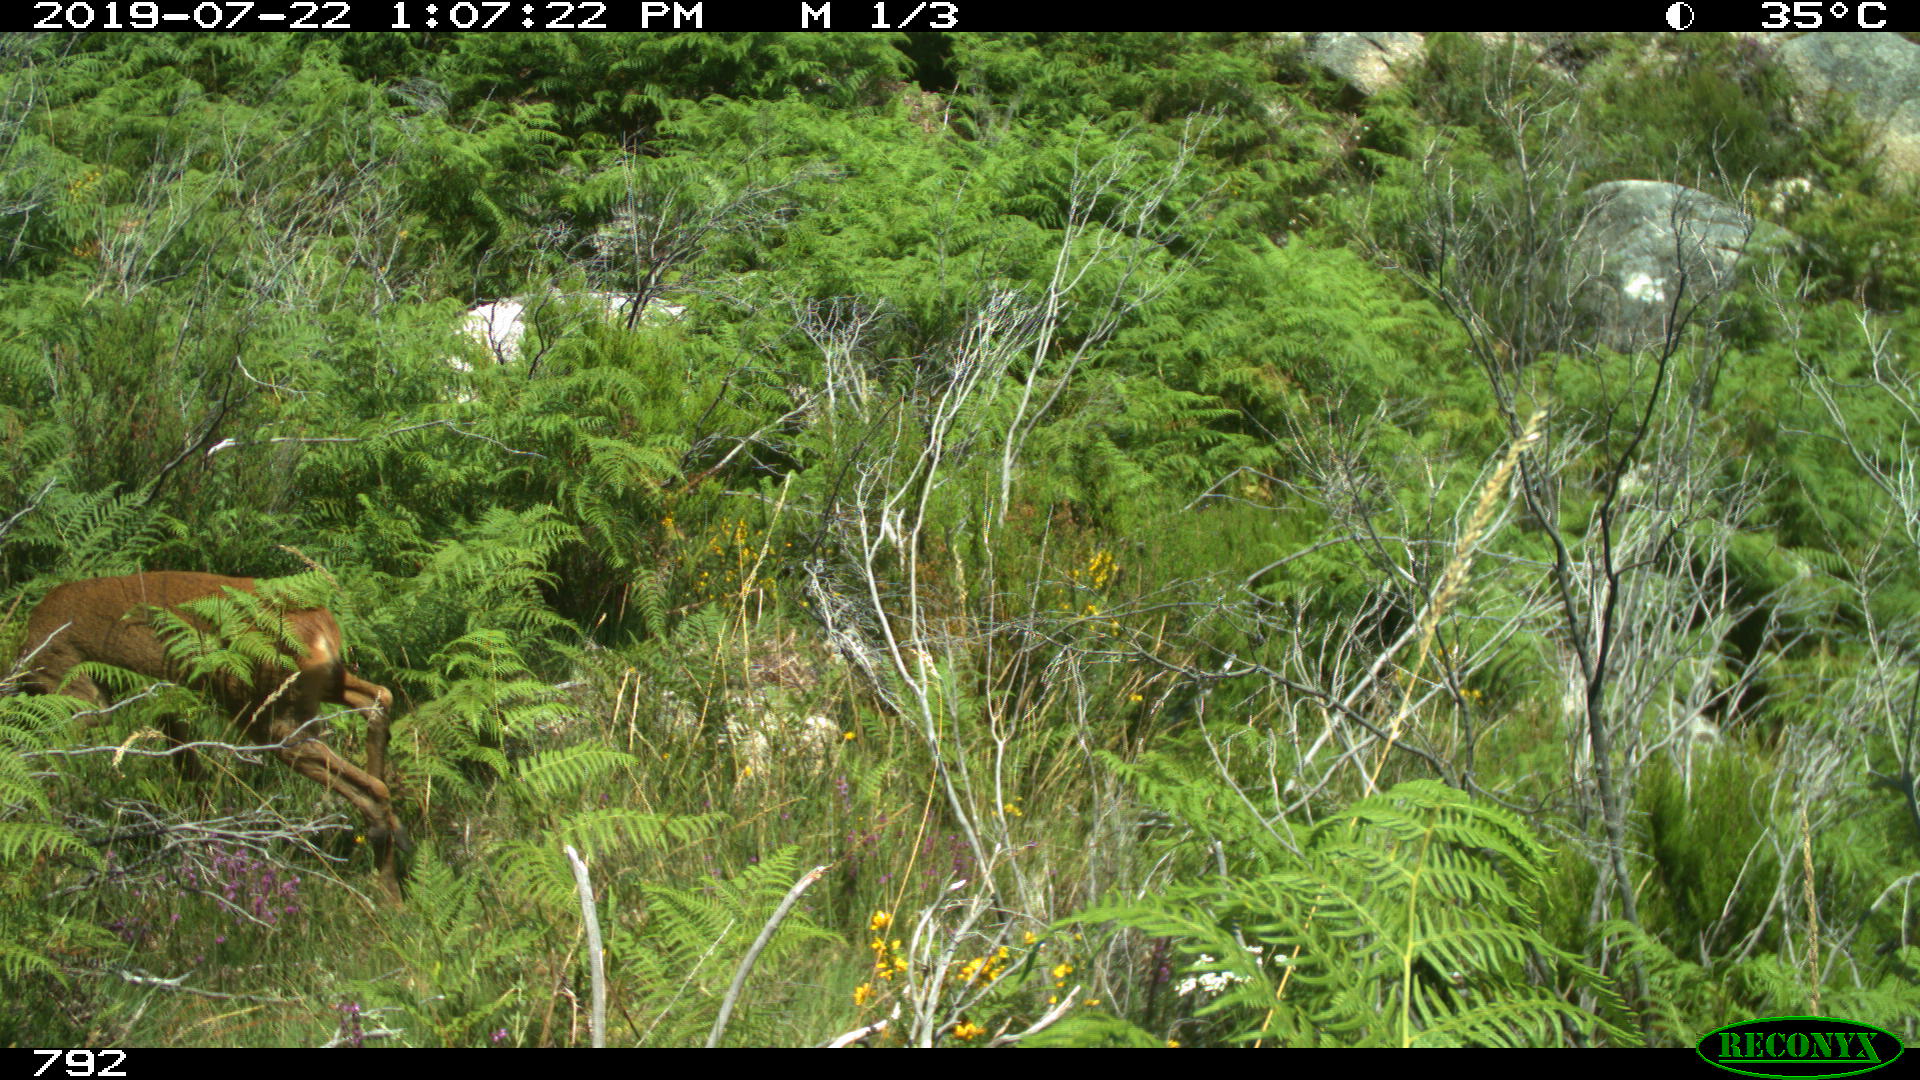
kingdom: Animalia
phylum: Chordata
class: Mammalia
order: Artiodactyla
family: Cervidae
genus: Capreolus
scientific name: Capreolus capreolus
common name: Western roe deer
